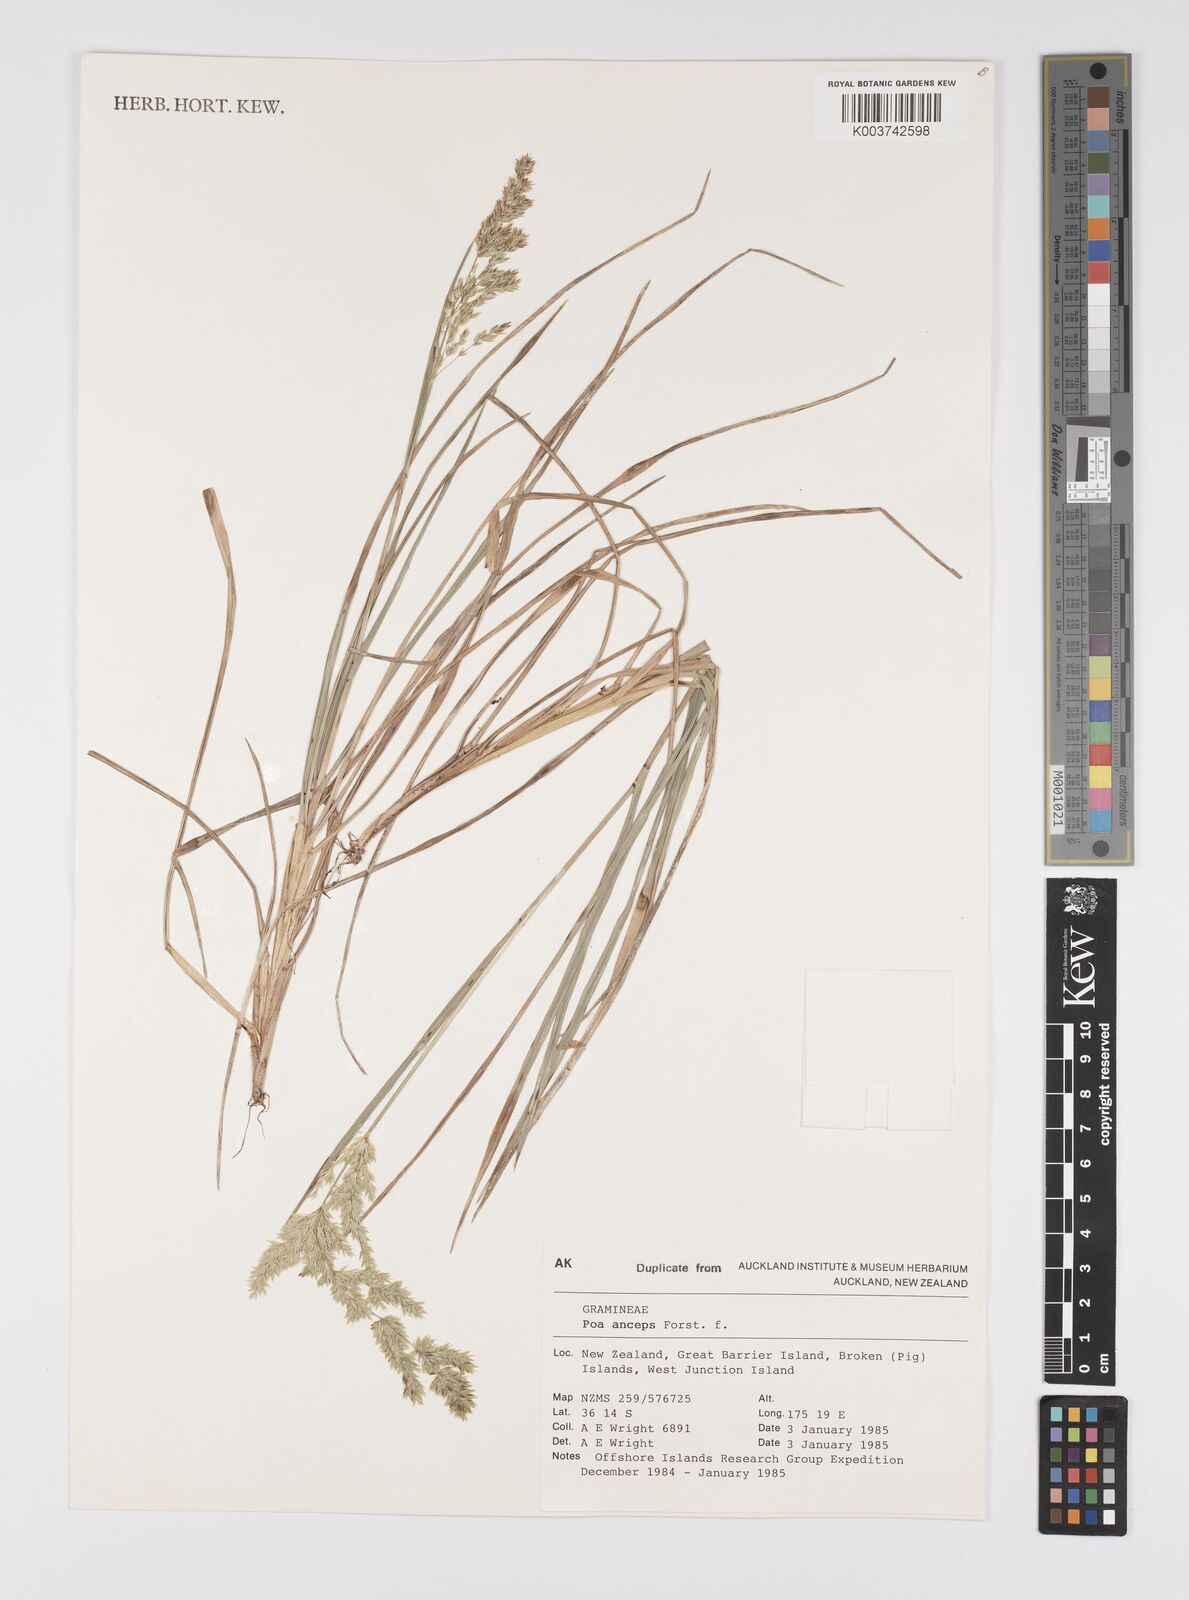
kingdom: Plantae
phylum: Tracheophyta
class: Liliopsida
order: Poales
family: Poaceae
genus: Poa
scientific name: Poa anceps
